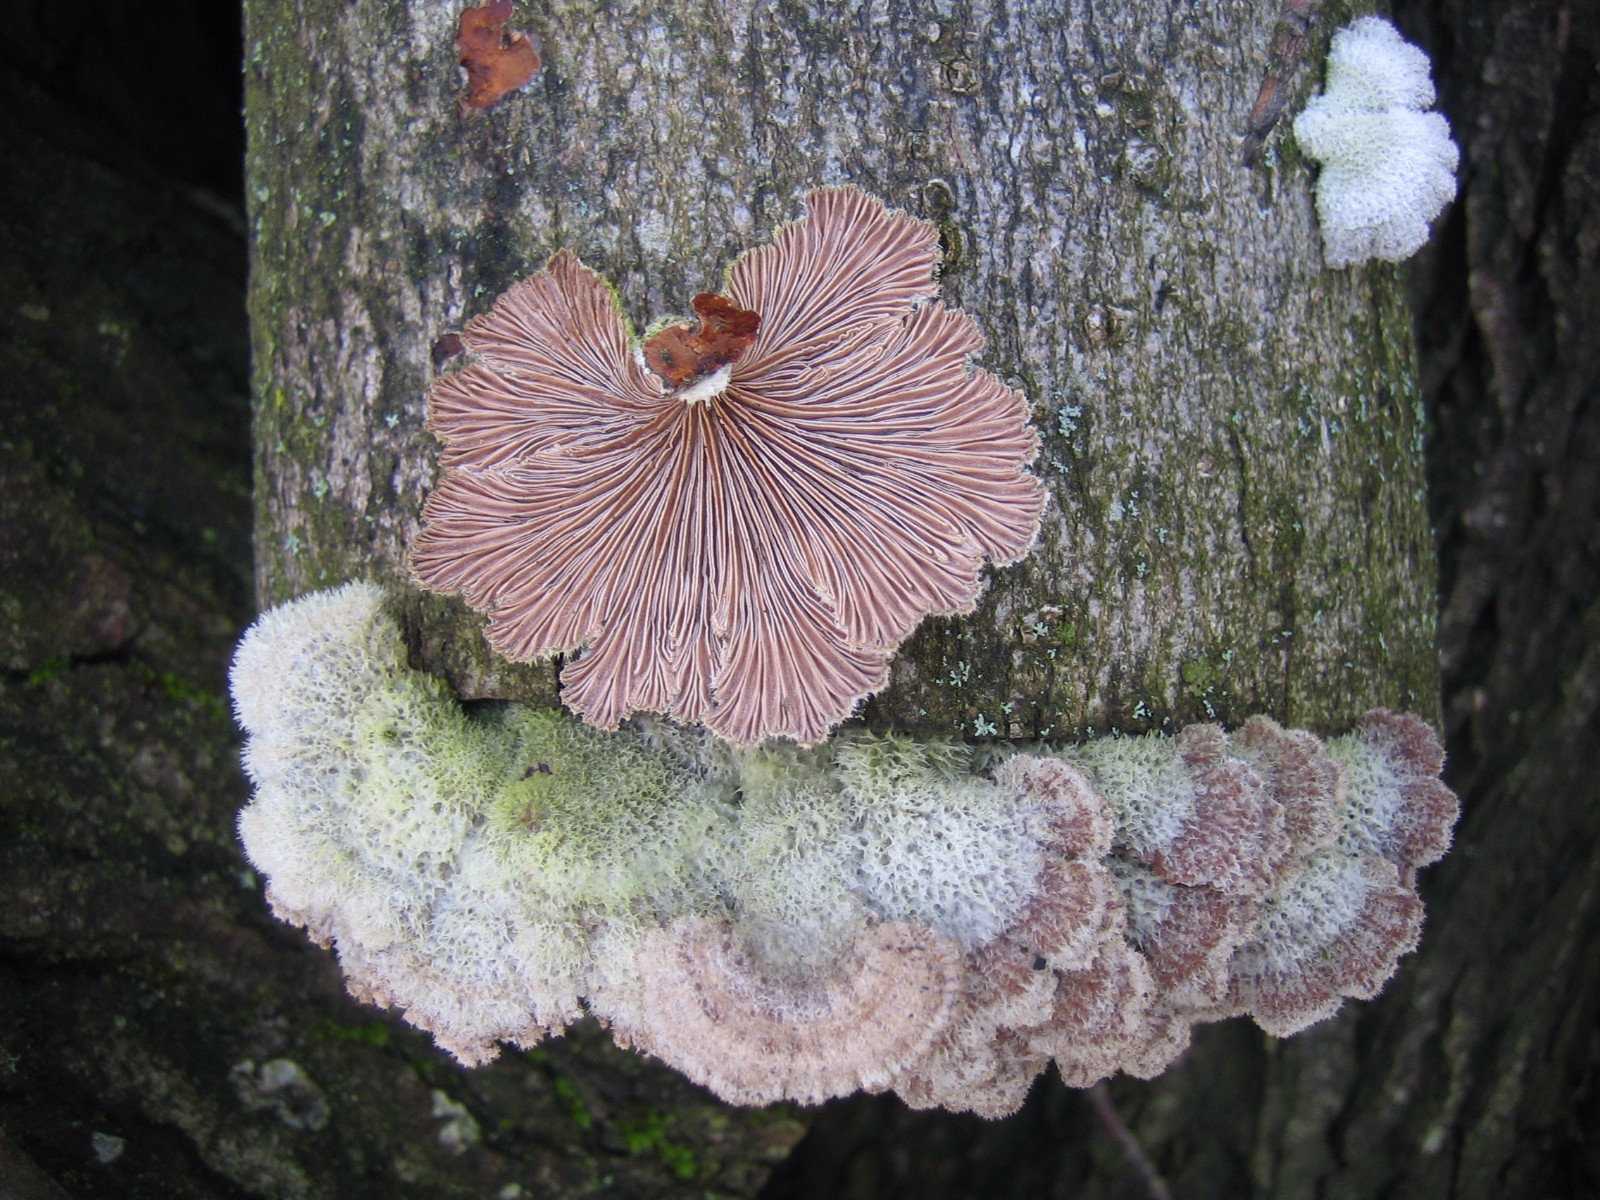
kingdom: Fungi
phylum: Basidiomycota
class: Agaricomycetes
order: Agaricales
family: Schizophyllaceae
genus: Schizophyllum
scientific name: Schizophyllum commune
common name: kløvblad
